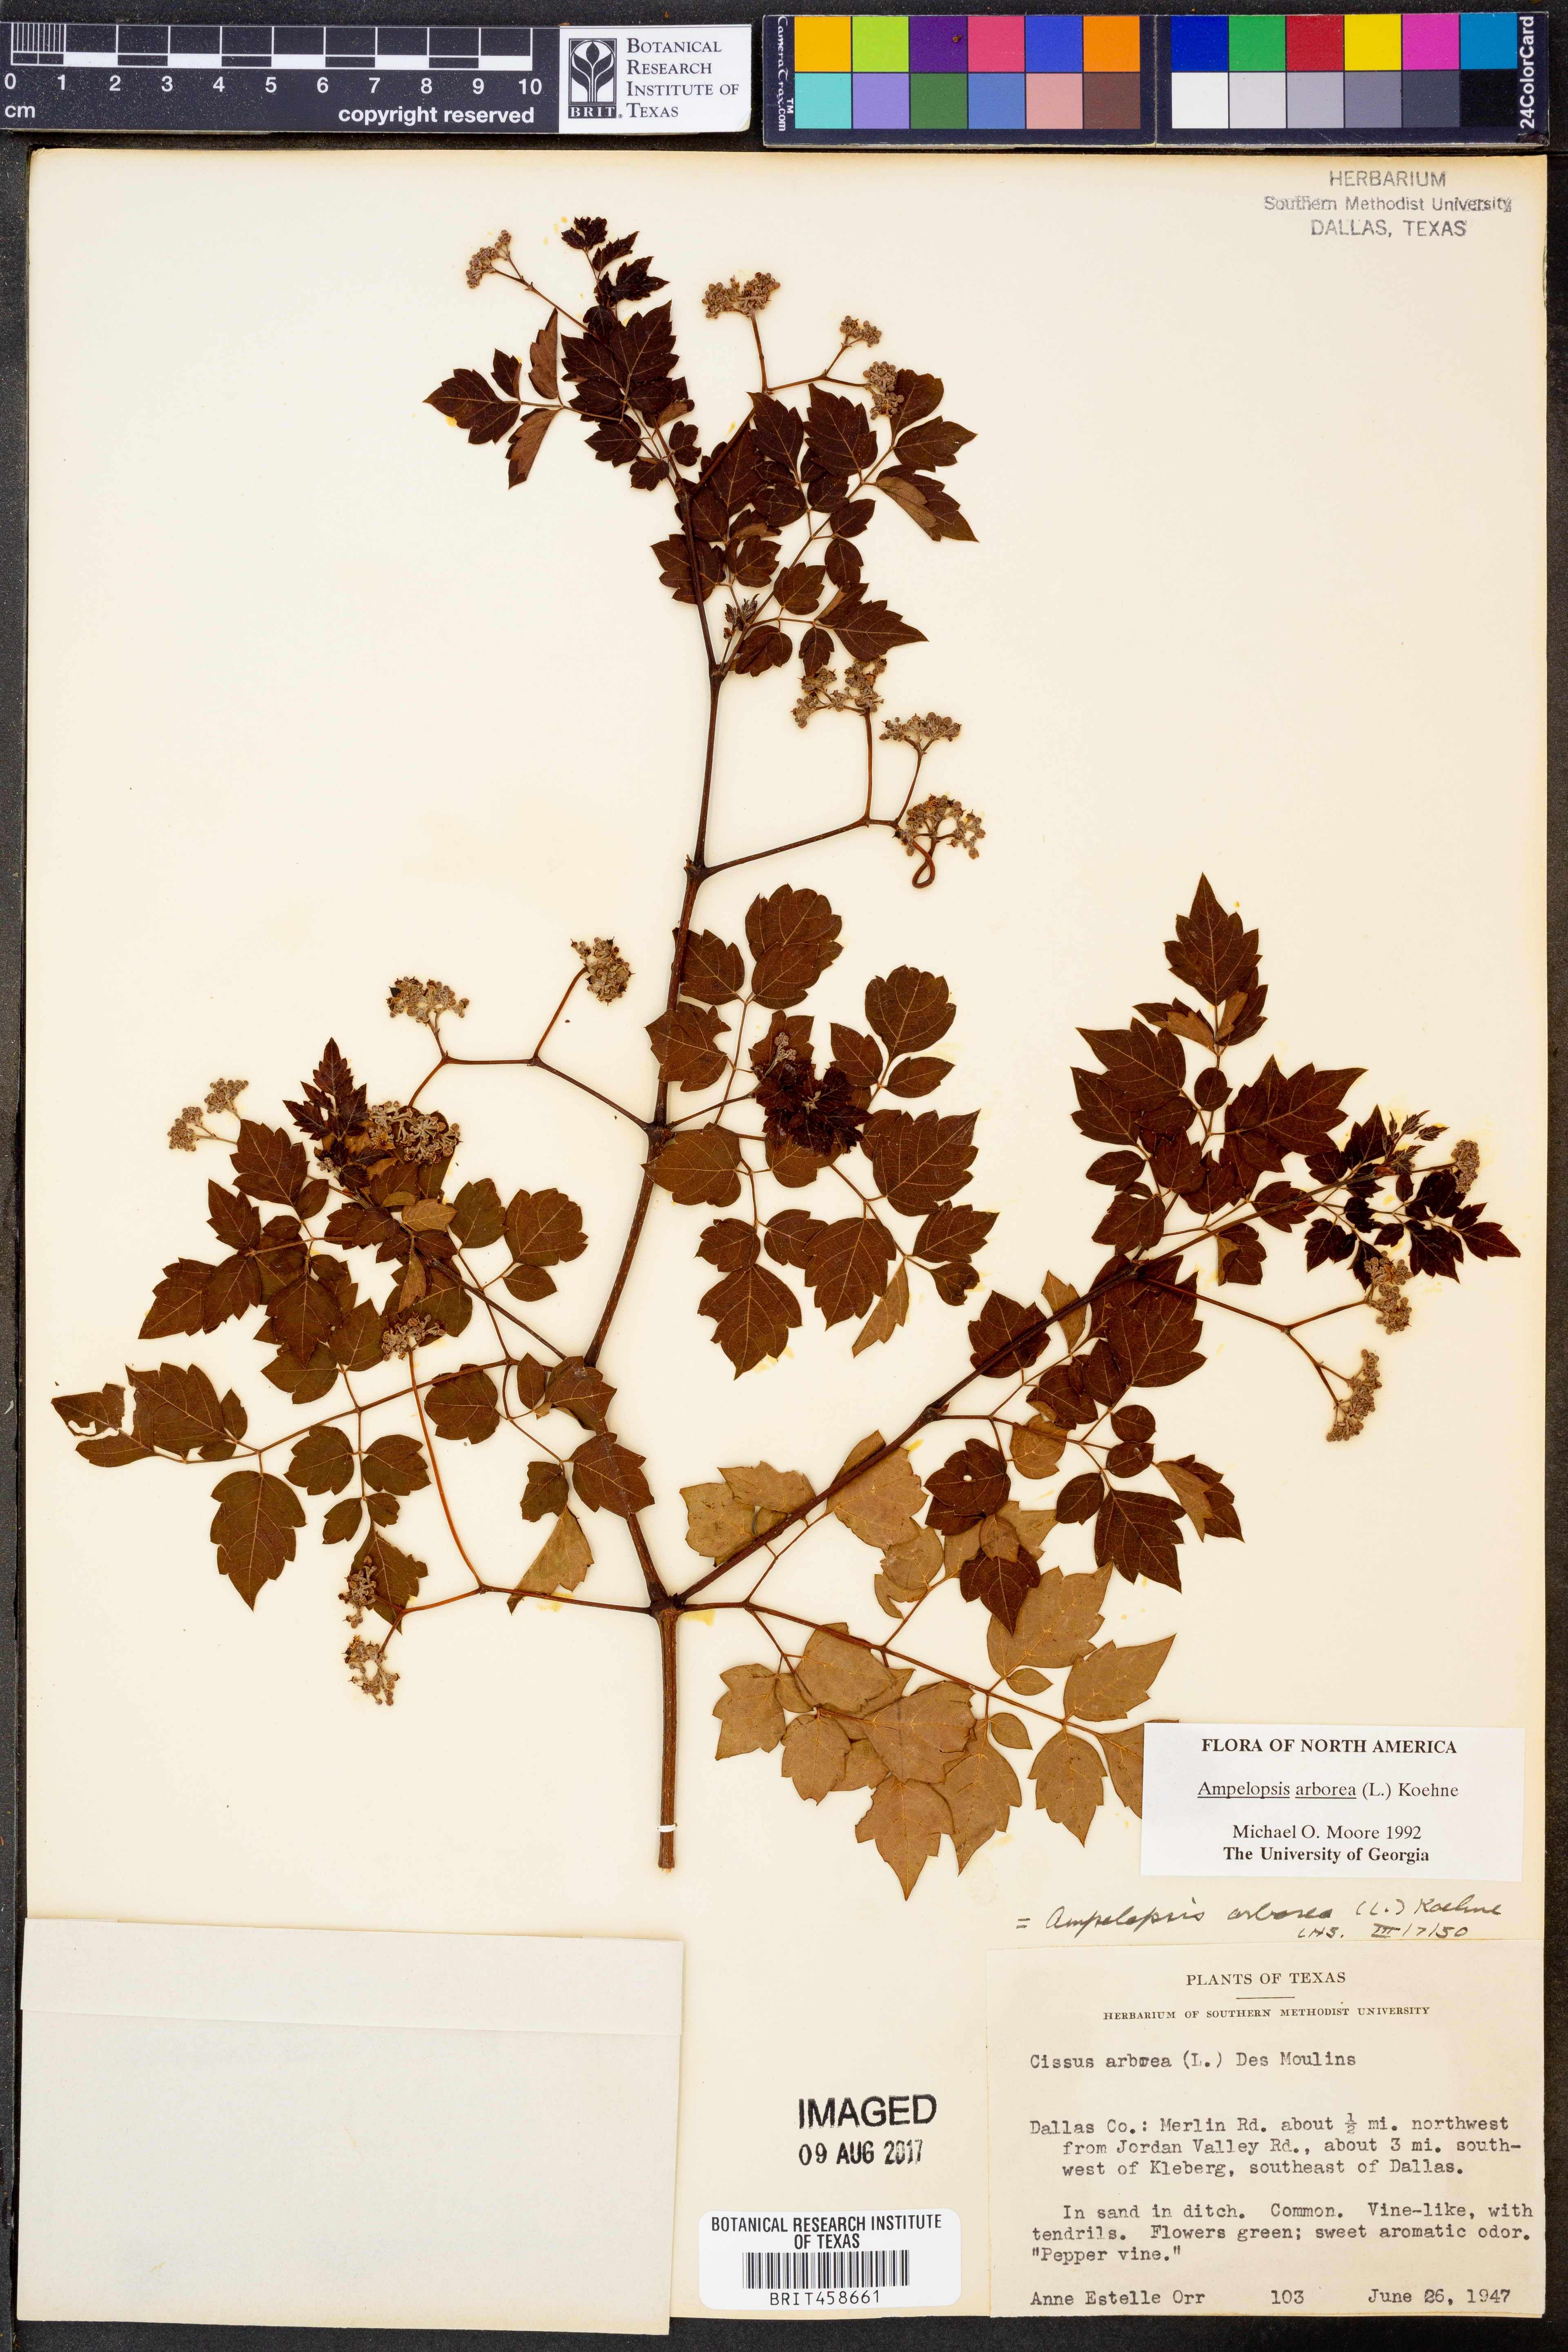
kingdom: Plantae
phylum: Tracheophyta
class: Magnoliopsida
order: Vitales
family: Vitaceae
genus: Nekemias
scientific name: Nekemias arborea
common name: Peppervine
